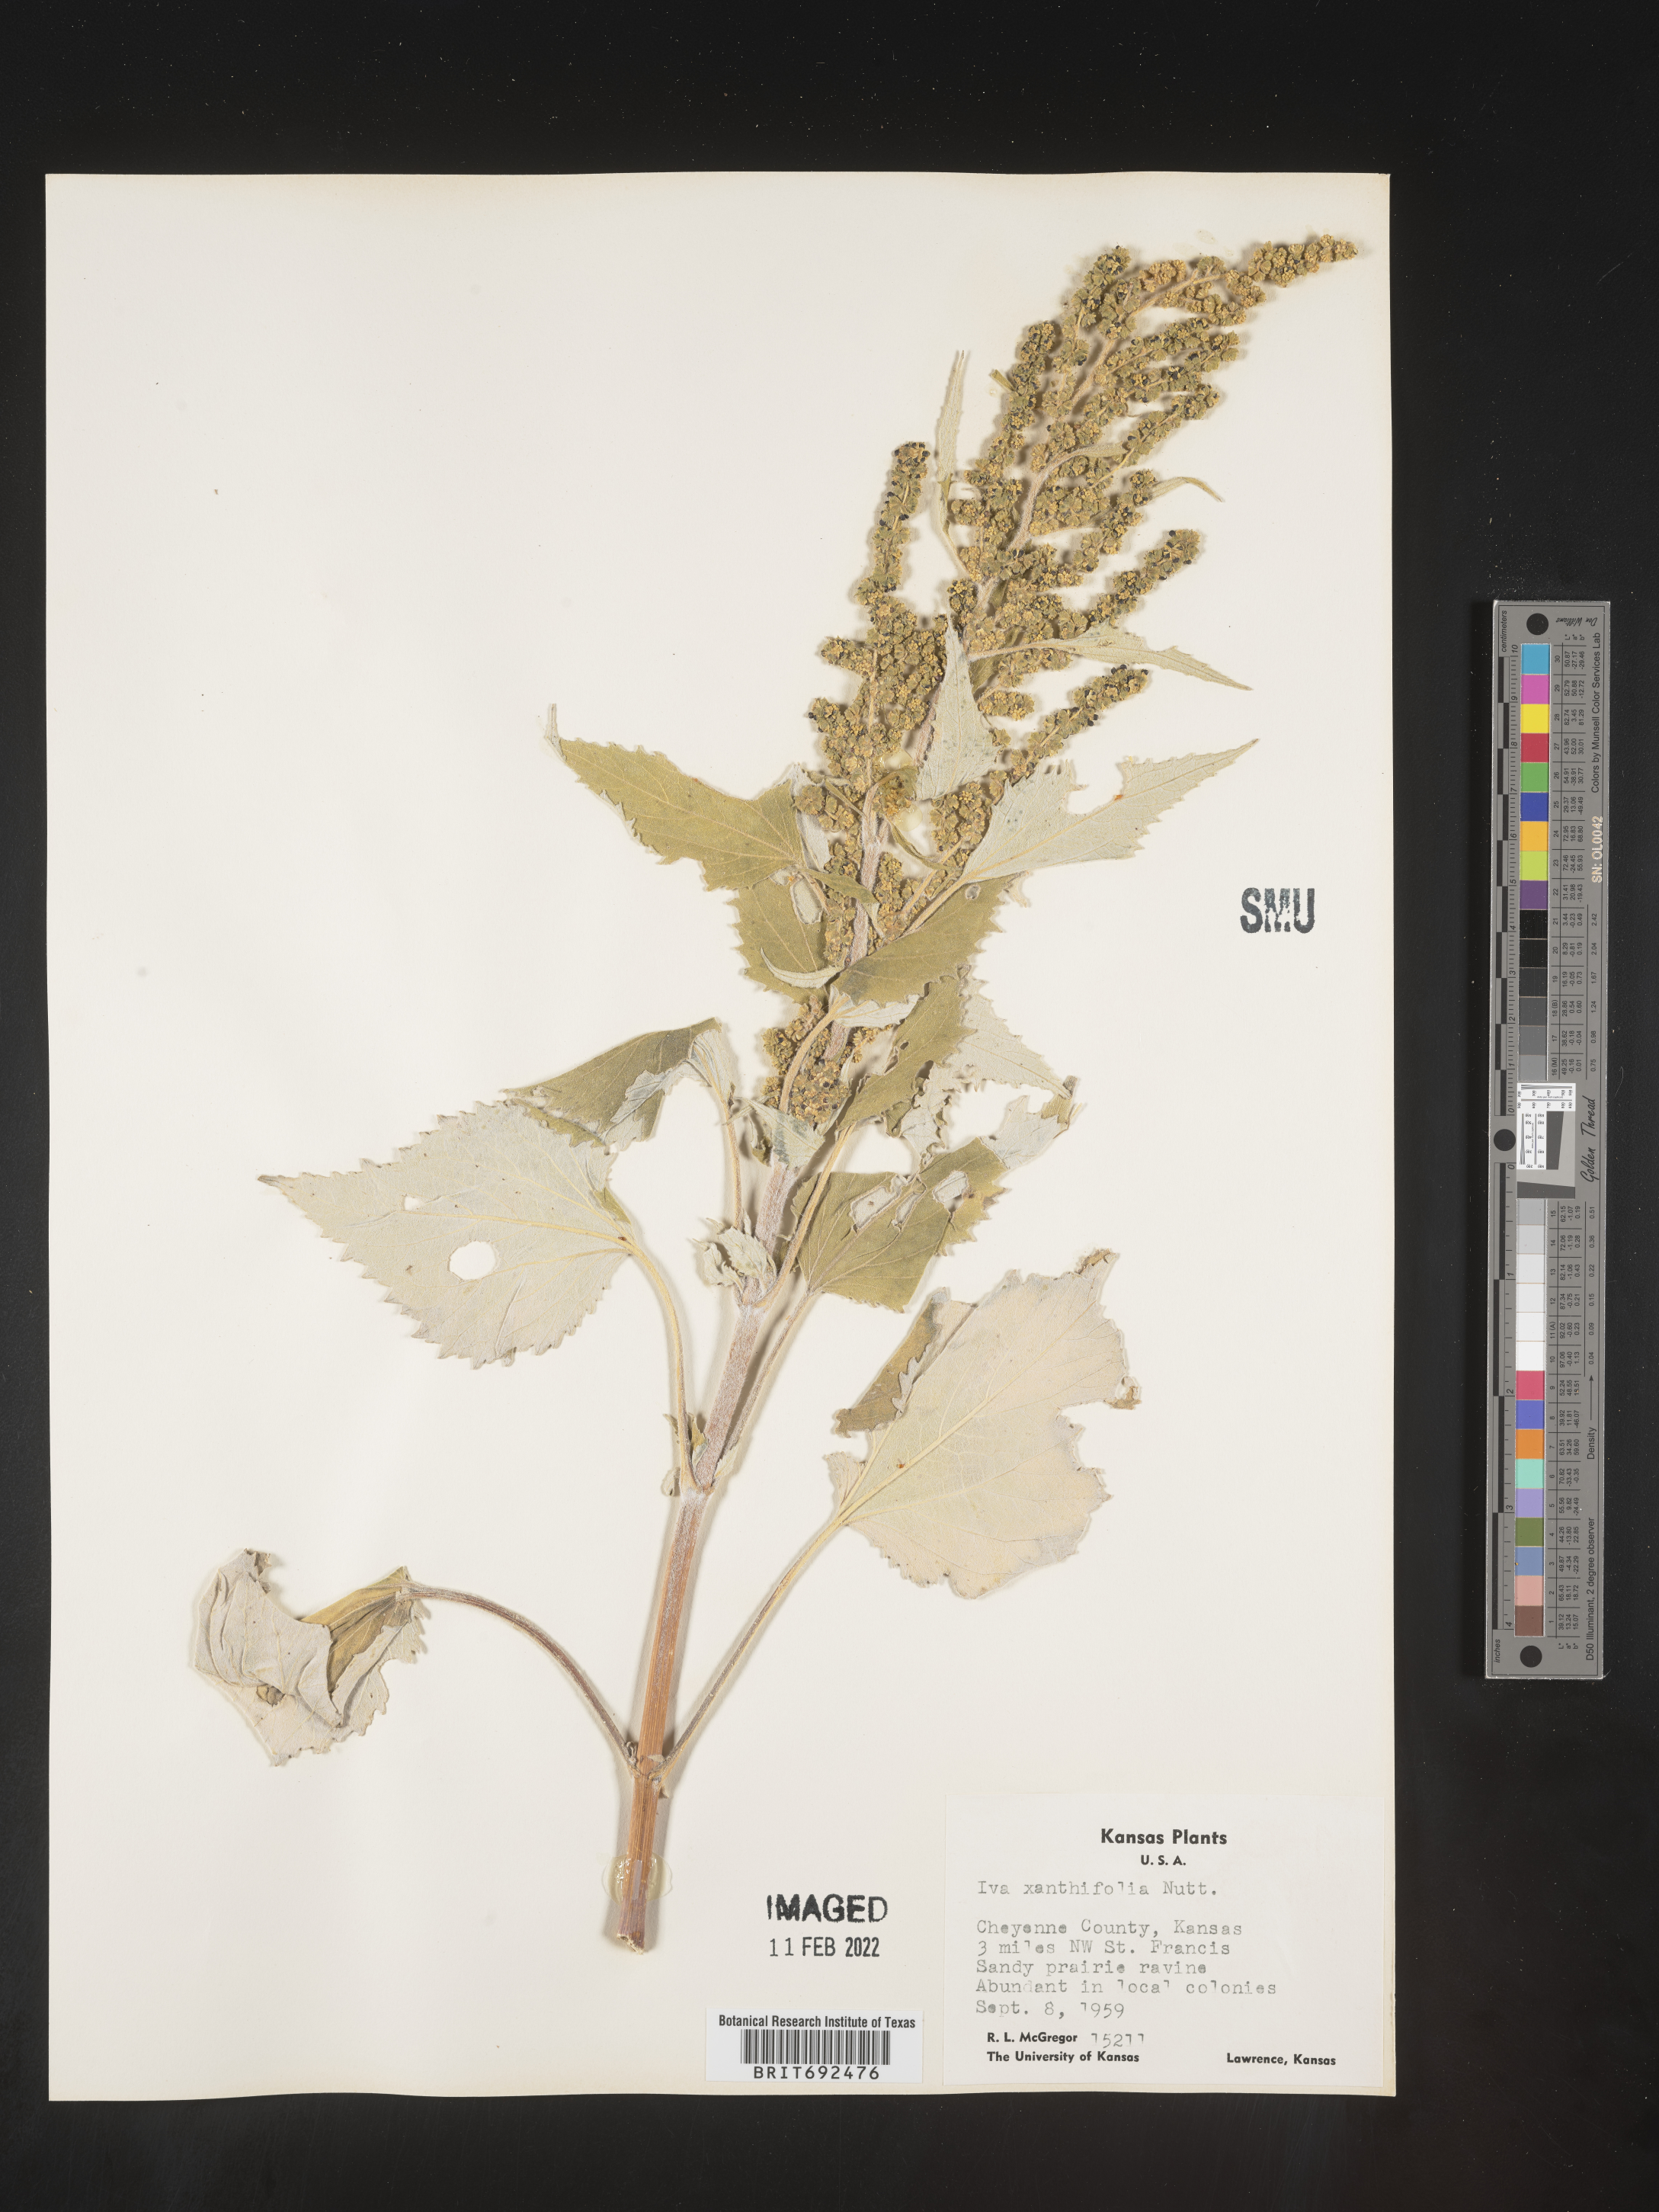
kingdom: Plantae
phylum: Tracheophyta
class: Magnoliopsida
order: Asterales
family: Asteraceae
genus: Cyclachaena
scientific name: Cyclachaena
